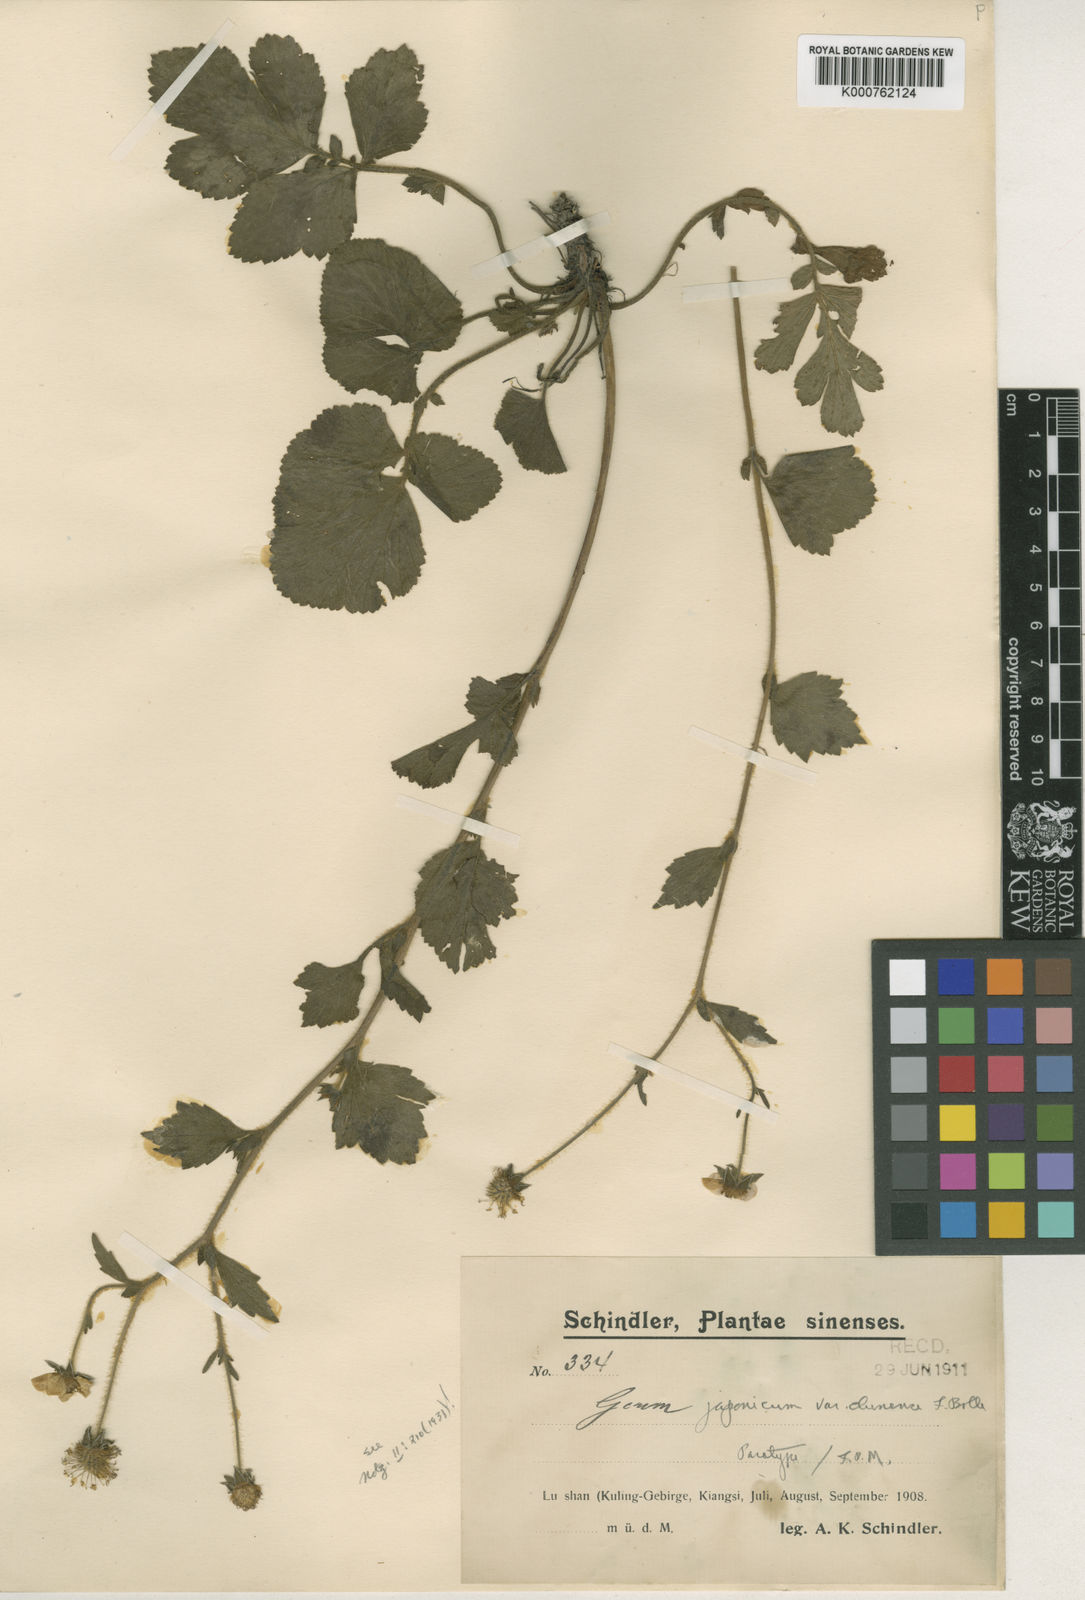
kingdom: Plantae
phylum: Tracheophyta
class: Magnoliopsida
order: Rosales
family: Rosaceae
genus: Geum
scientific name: Geum japonicum
